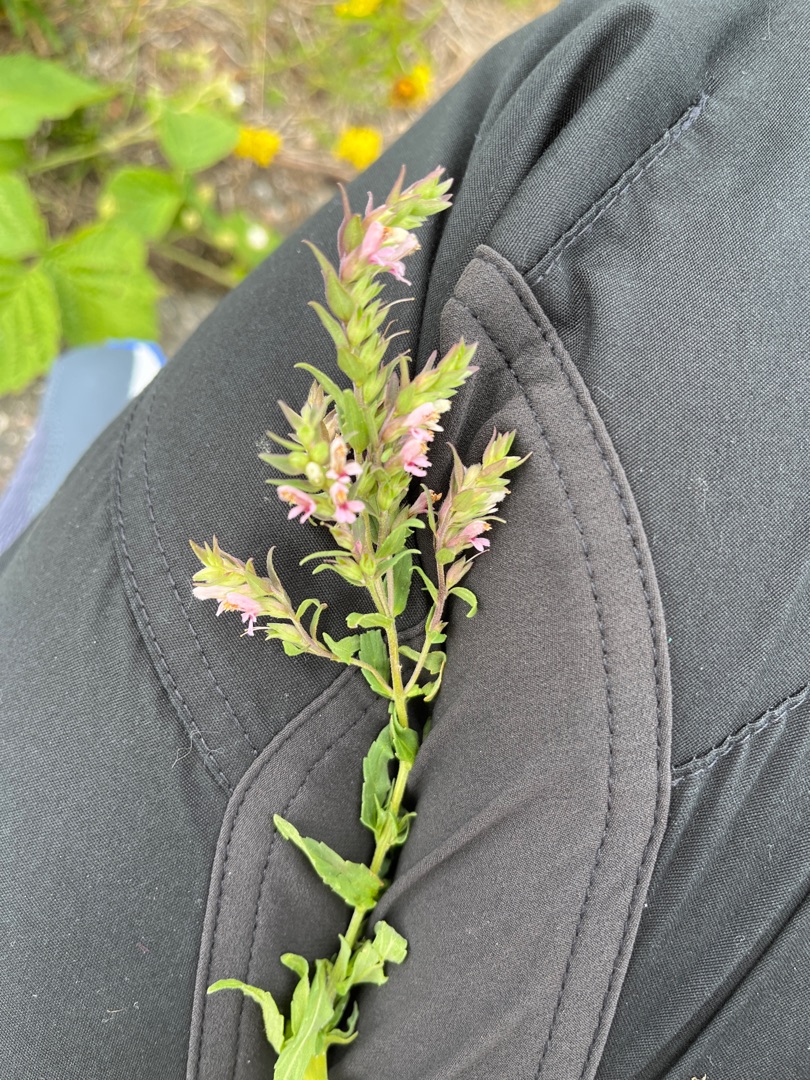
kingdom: Plantae
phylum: Tracheophyta
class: Magnoliopsida
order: Lamiales
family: Orobanchaceae
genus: Odontites
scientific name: Odontites vernus
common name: Mark-rødtop
